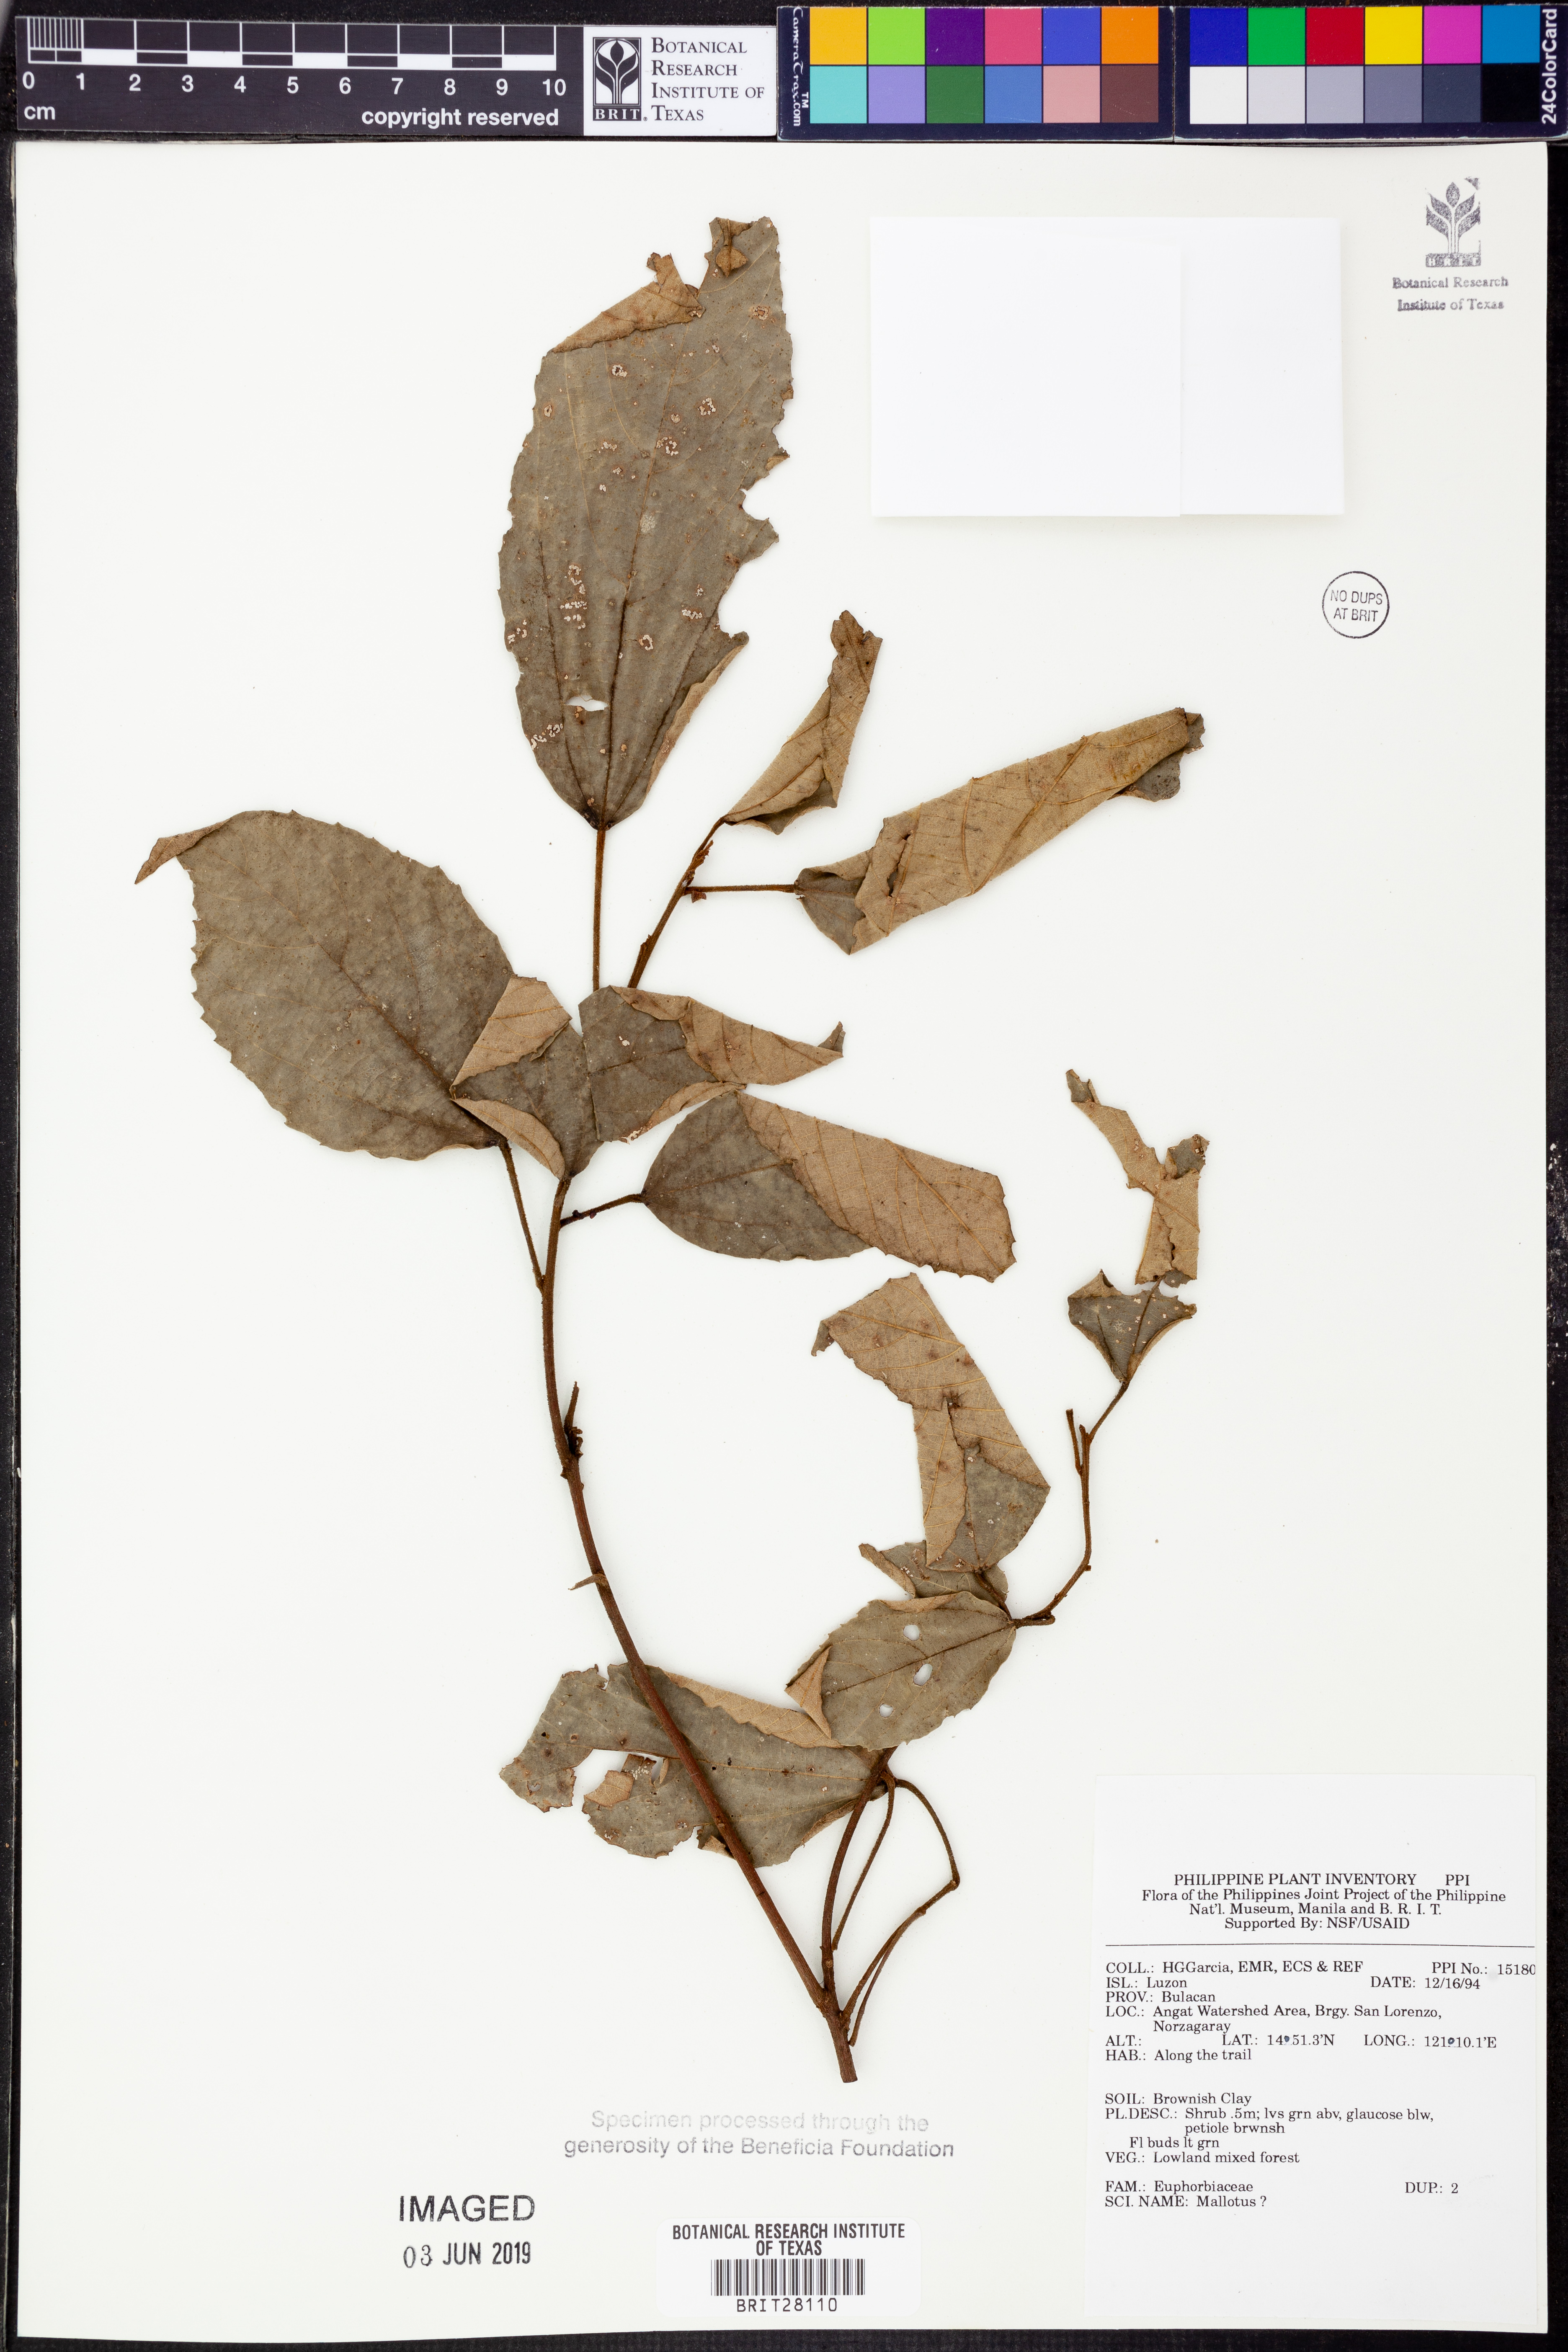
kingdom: Plantae
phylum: Tracheophyta
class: Magnoliopsida
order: Malpighiales
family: Euphorbiaceae
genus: Mallotus
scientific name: Mallotus
